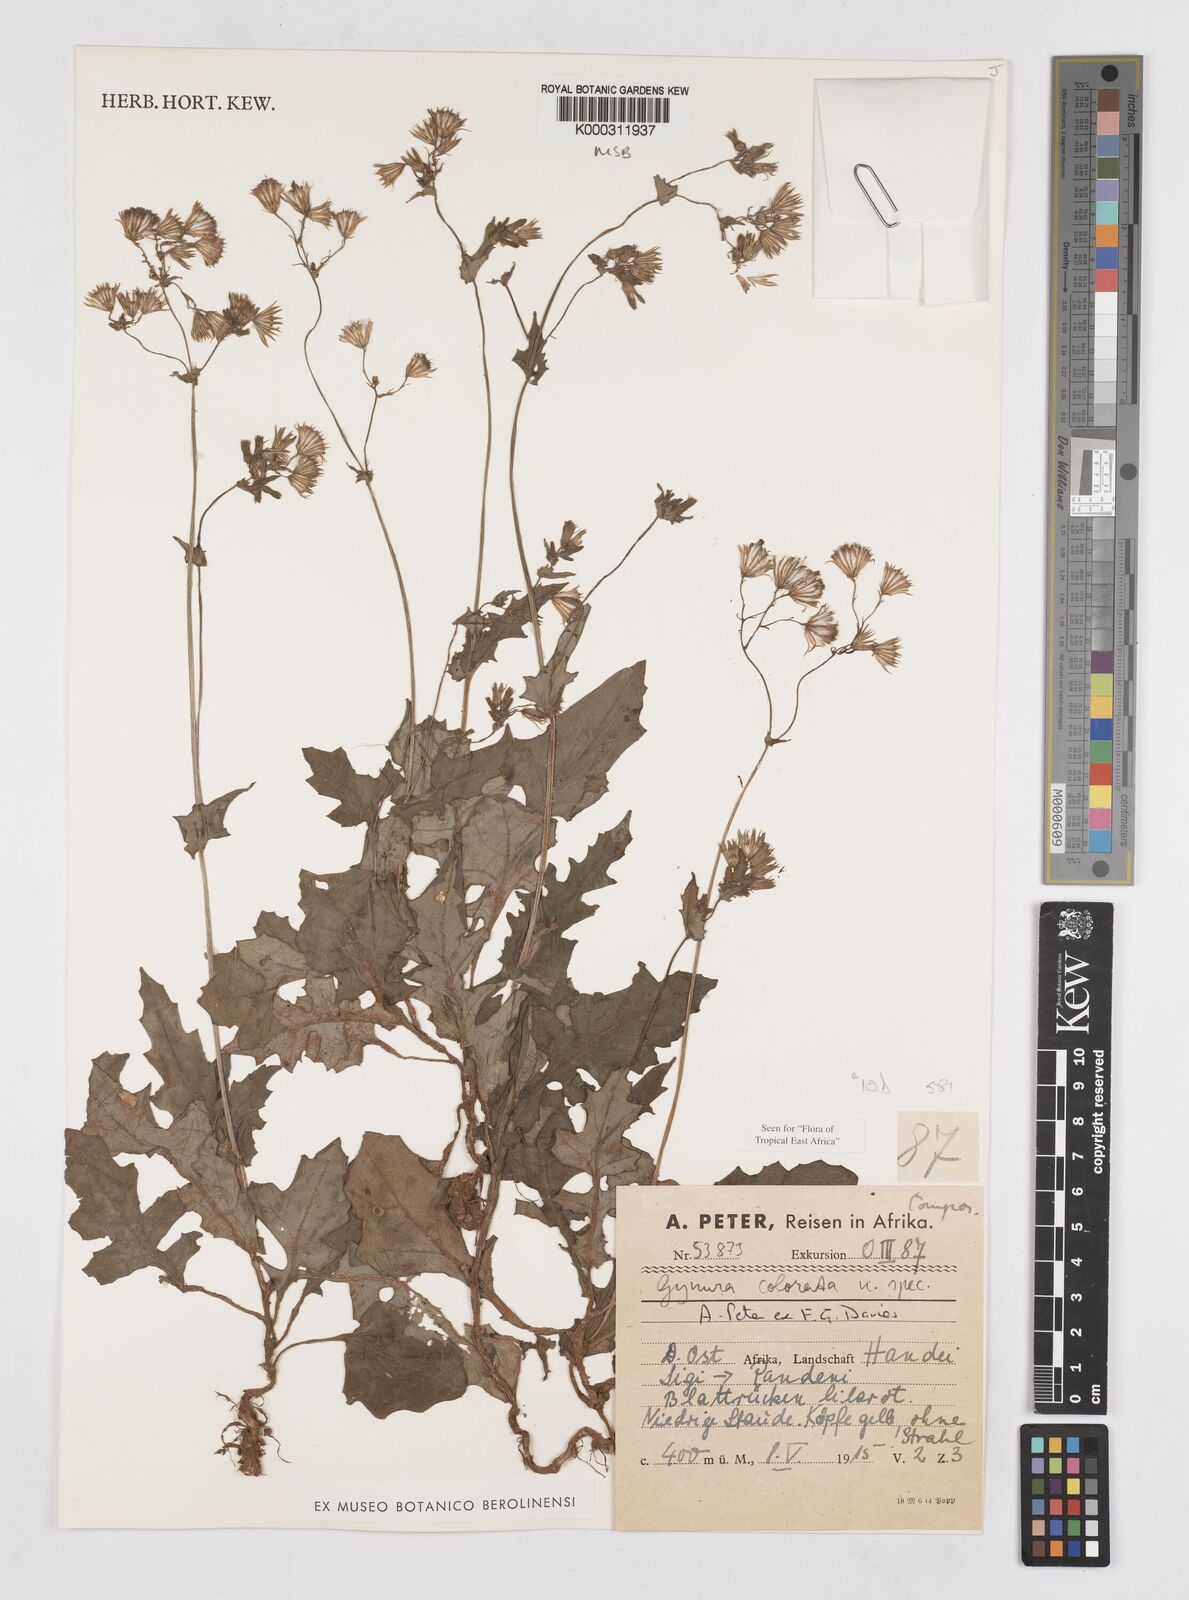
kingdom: Plantae
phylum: Tracheophyta
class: Magnoliopsida
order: Asterales
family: Asteraceae
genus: Gynura
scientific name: Gynura colorata
